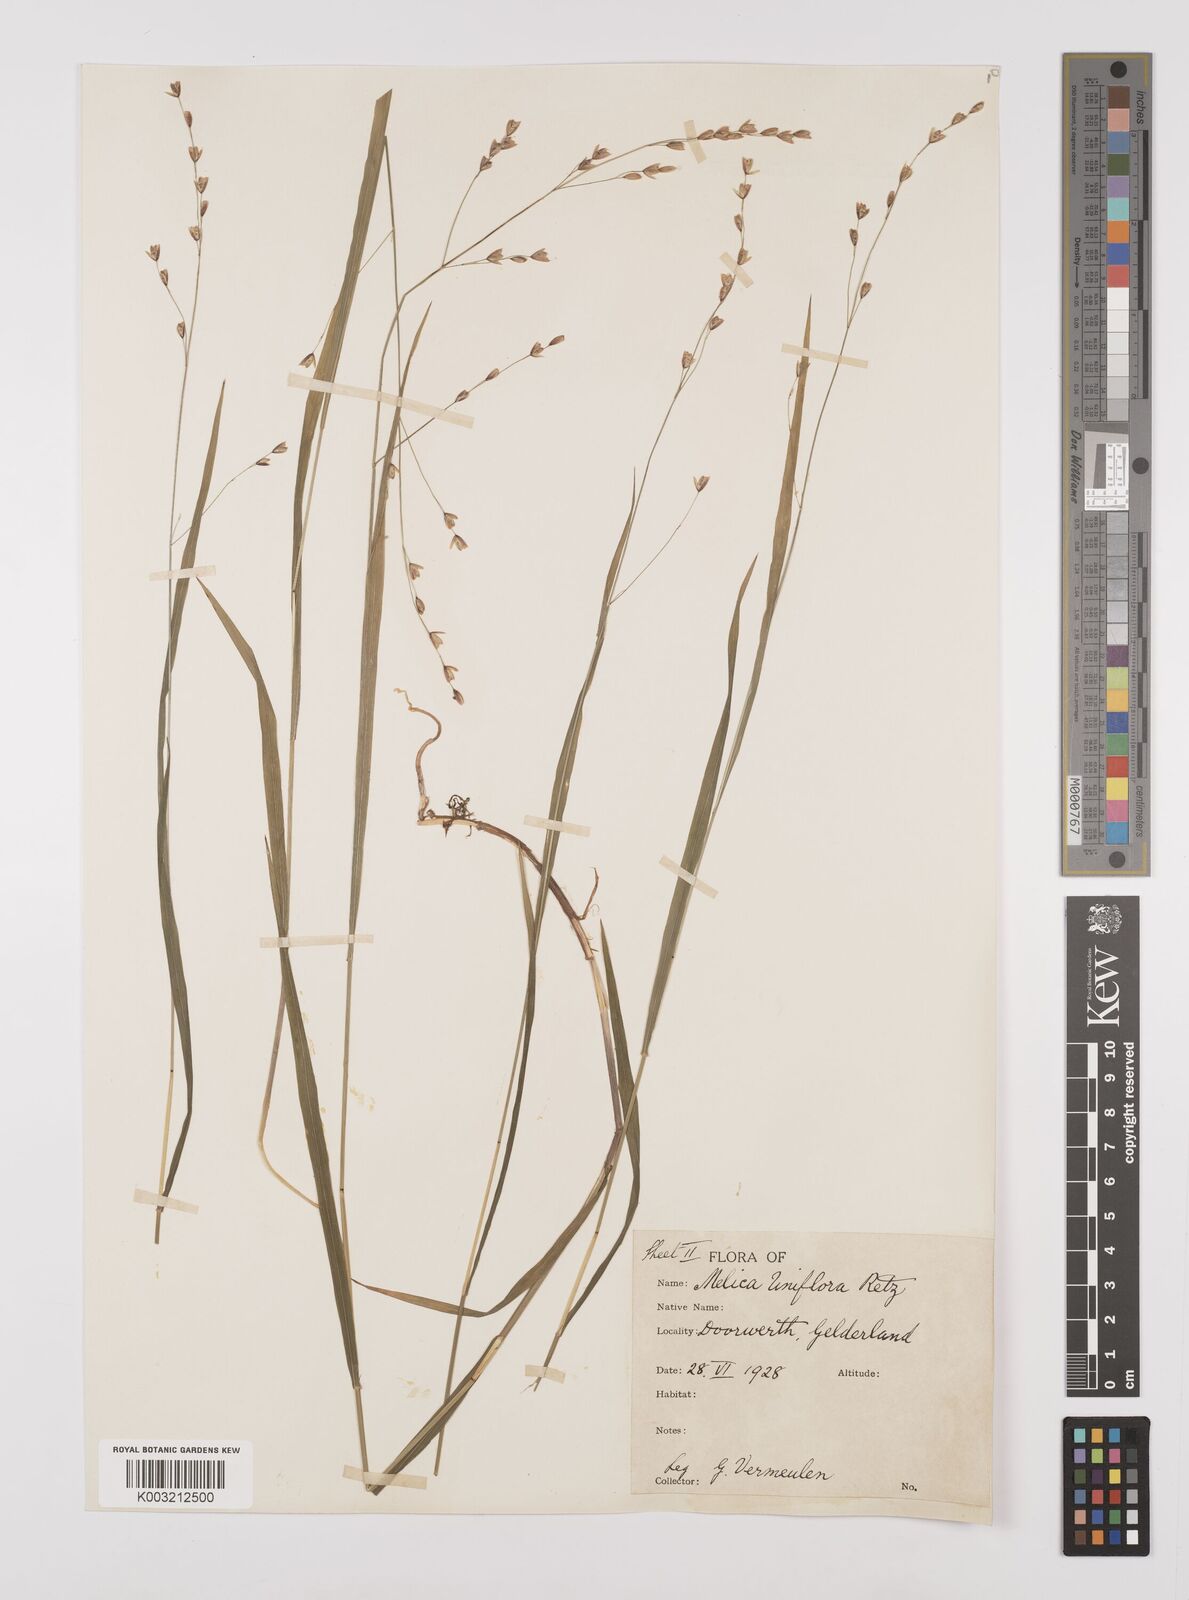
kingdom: Plantae
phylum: Tracheophyta
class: Liliopsida
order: Poales
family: Poaceae
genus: Melica
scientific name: Melica uniflora
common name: Wood melick
